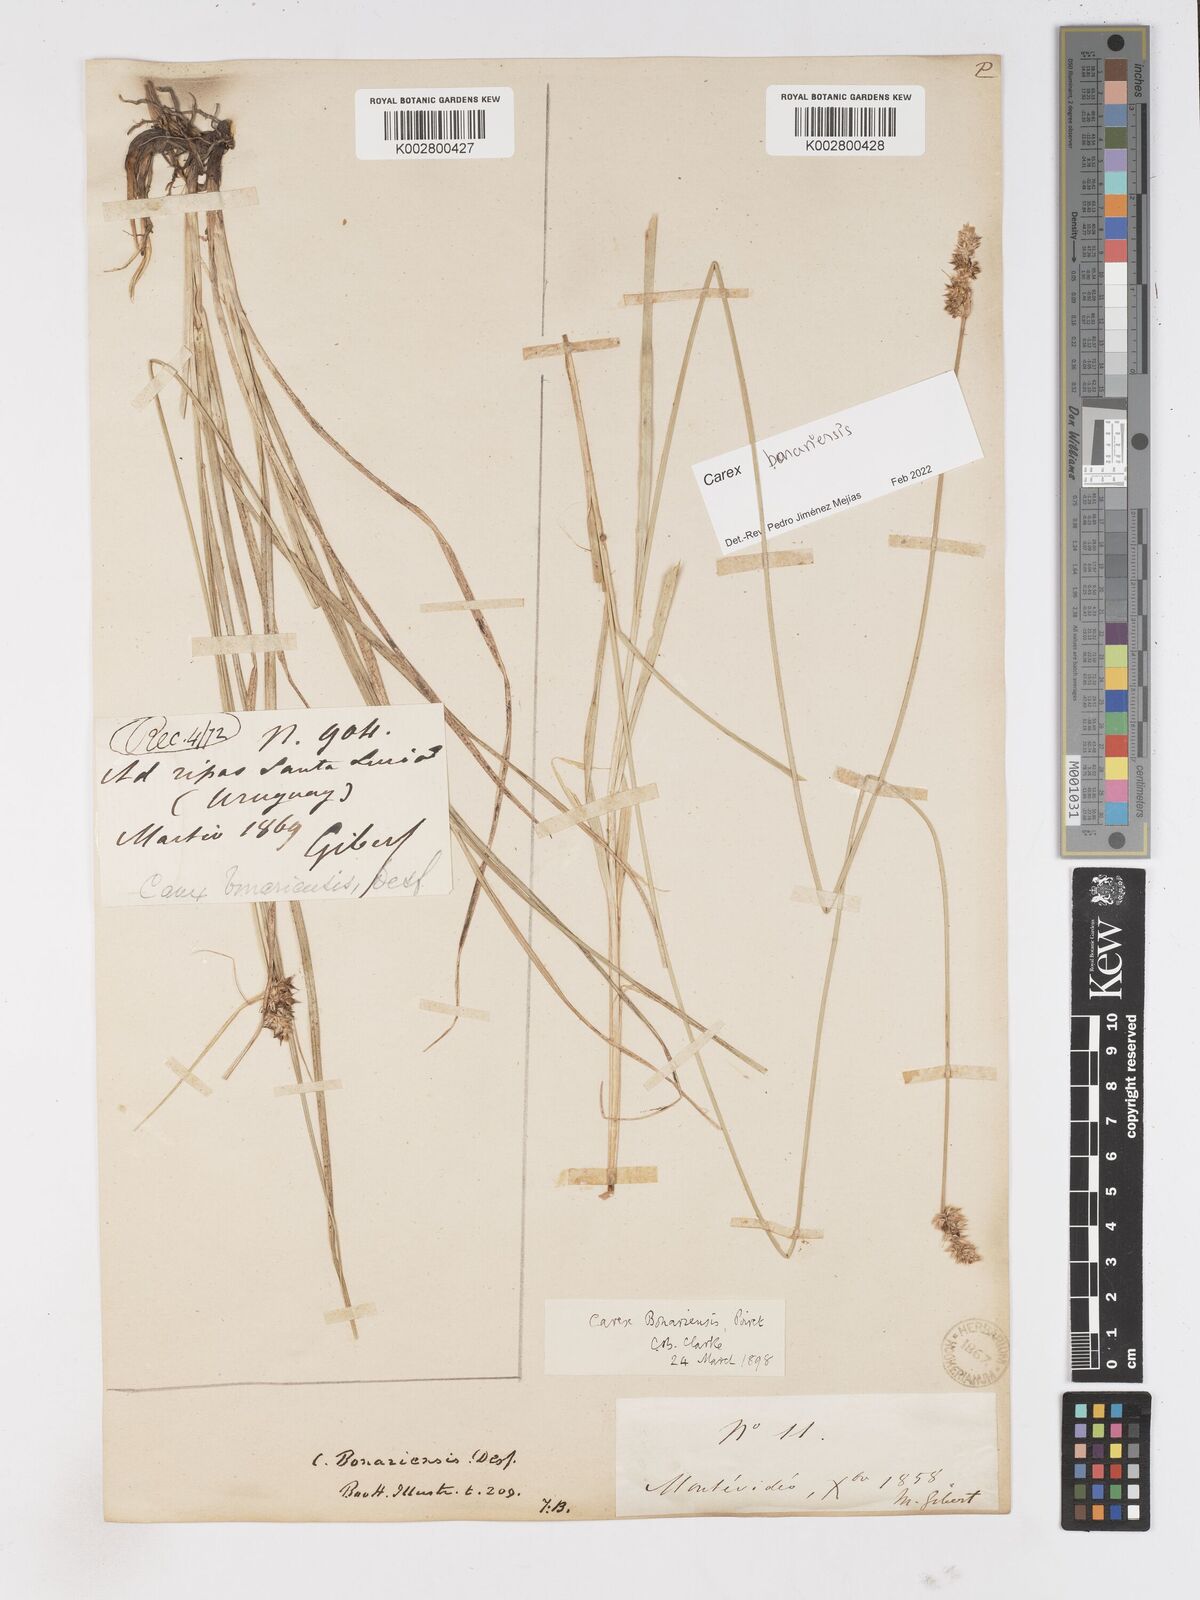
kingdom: Plantae
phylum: Tracheophyta
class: Liliopsida
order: Poales
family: Cyperaceae
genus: Carex
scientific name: Carex bonariensis
